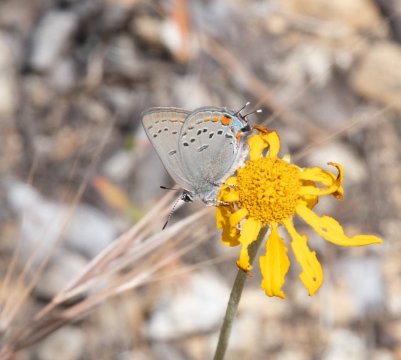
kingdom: Animalia
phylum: Arthropoda
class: Insecta
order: Lepidoptera
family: Lycaenidae
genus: Strymon
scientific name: Strymon acadica
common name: California Hairstreak
